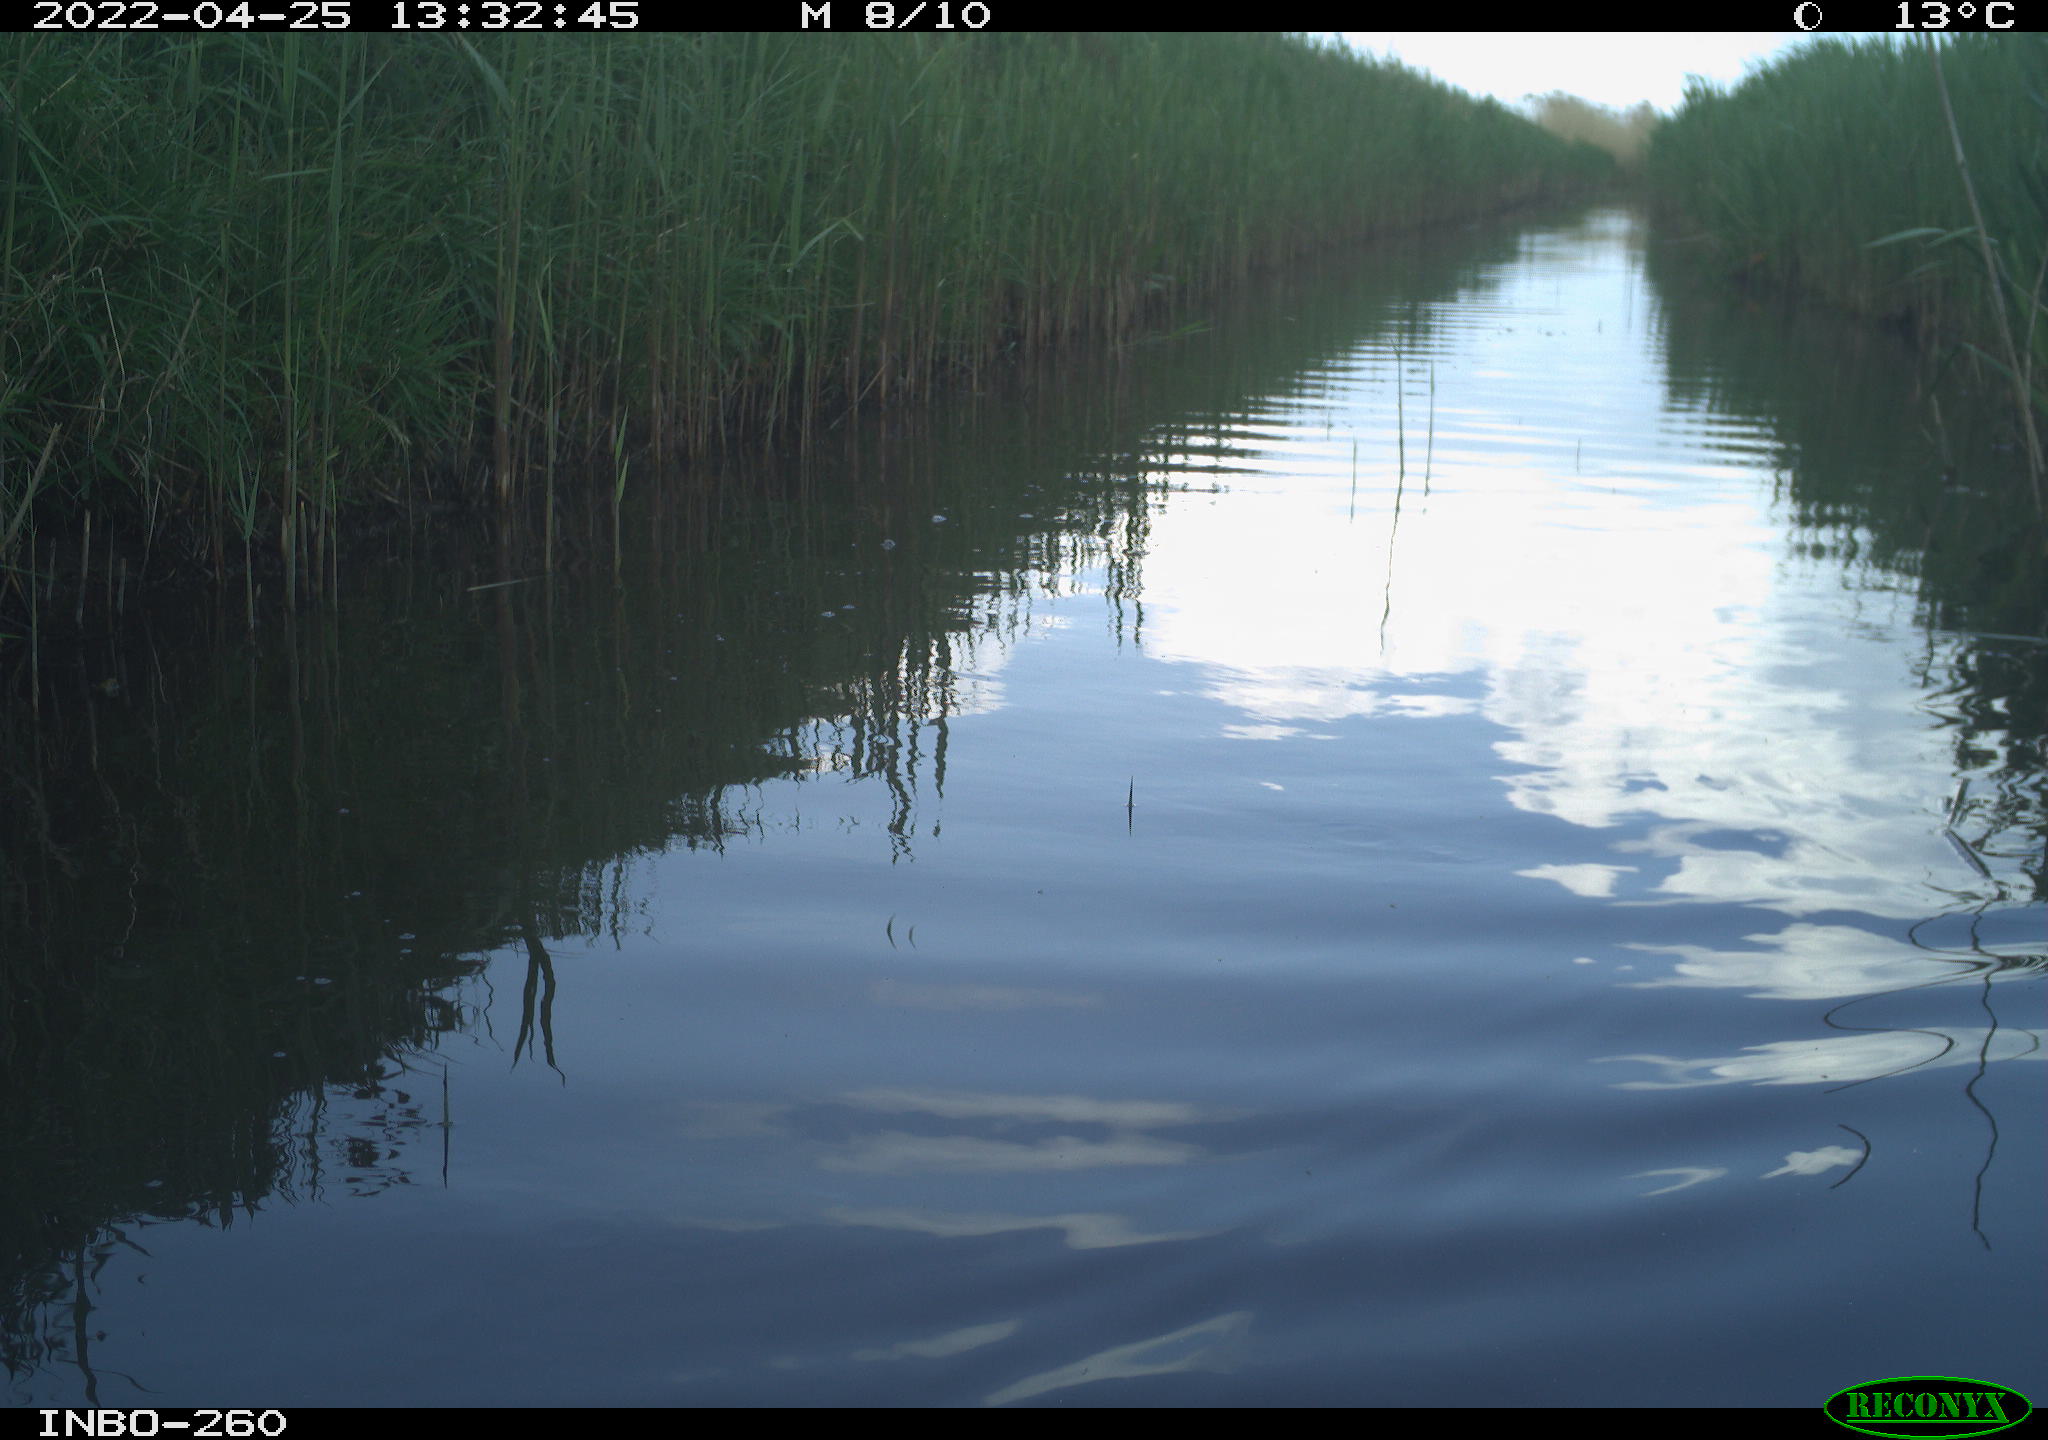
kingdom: Animalia
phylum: Chordata
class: Aves
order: Gruiformes
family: Rallidae
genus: Fulica
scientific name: Fulica atra
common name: Eurasian coot
